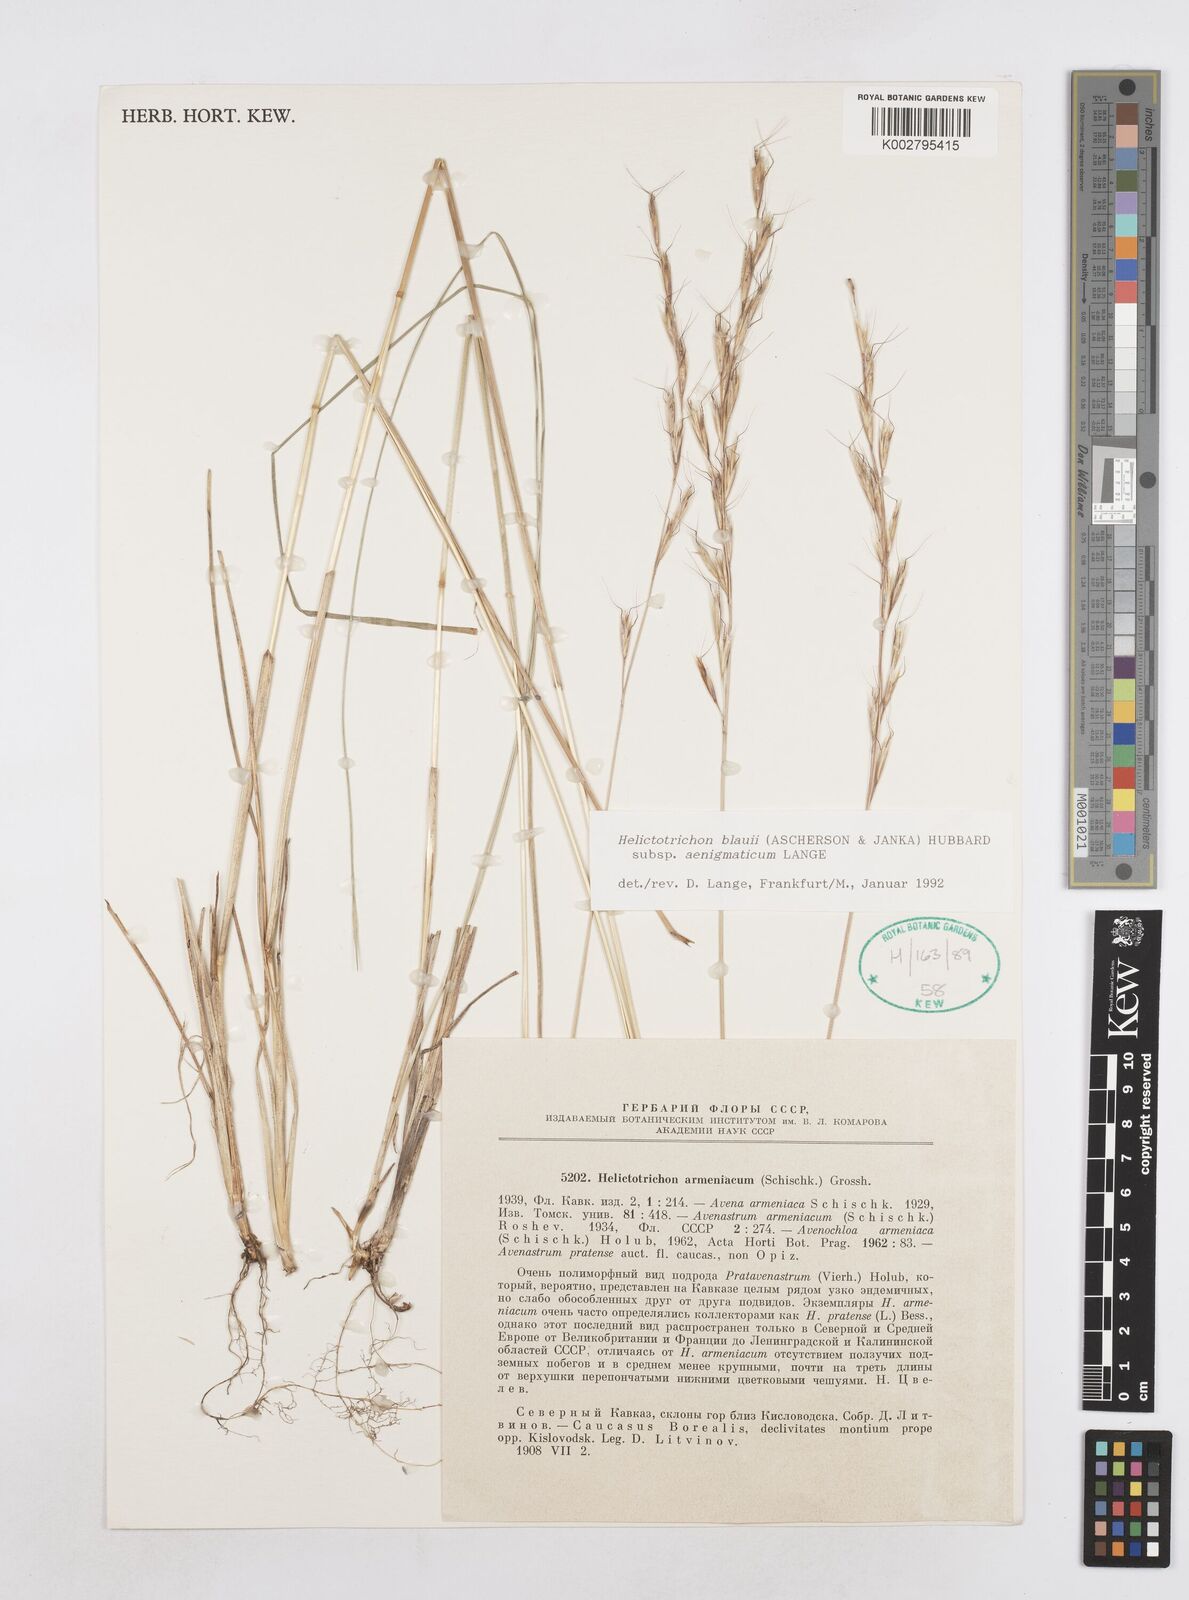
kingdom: Plantae
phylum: Tracheophyta
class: Liliopsida
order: Poales
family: Poaceae
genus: Helictochloa
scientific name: Helictochloa blaui
